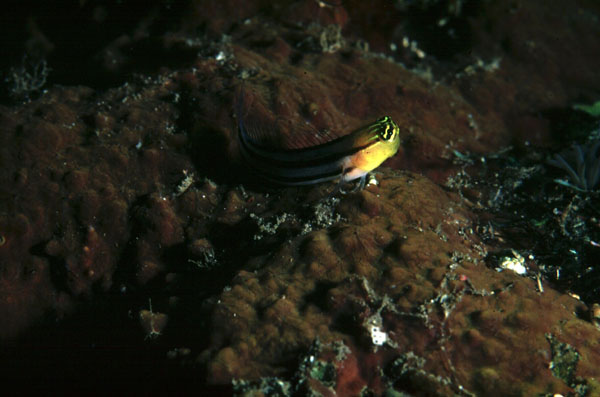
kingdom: Animalia
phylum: Chordata
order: Perciformes
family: Blenniidae
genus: Ecsenius
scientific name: Ecsenius bathi
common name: Bath's comb-tooth
